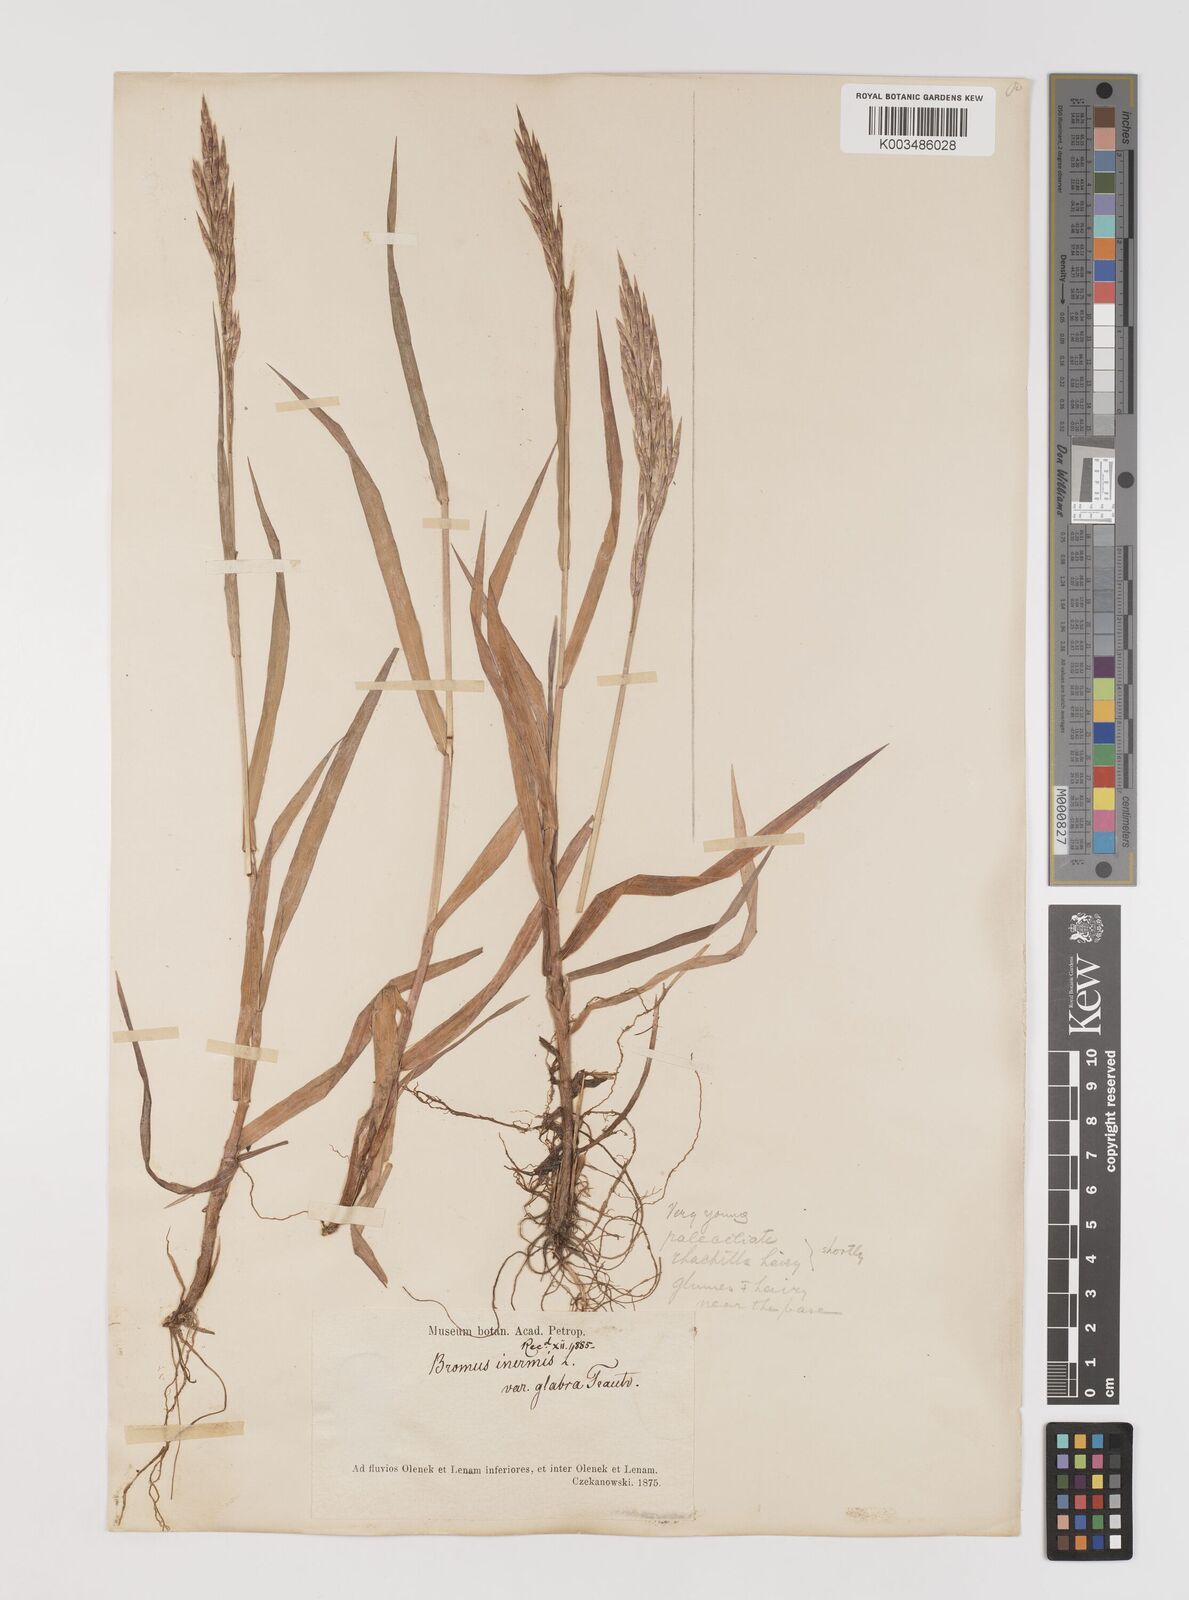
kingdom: Plantae
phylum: Tracheophyta
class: Liliopsida
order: Poales
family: Poaceae
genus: Bromus
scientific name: Bromus inermis
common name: Smooth brome
